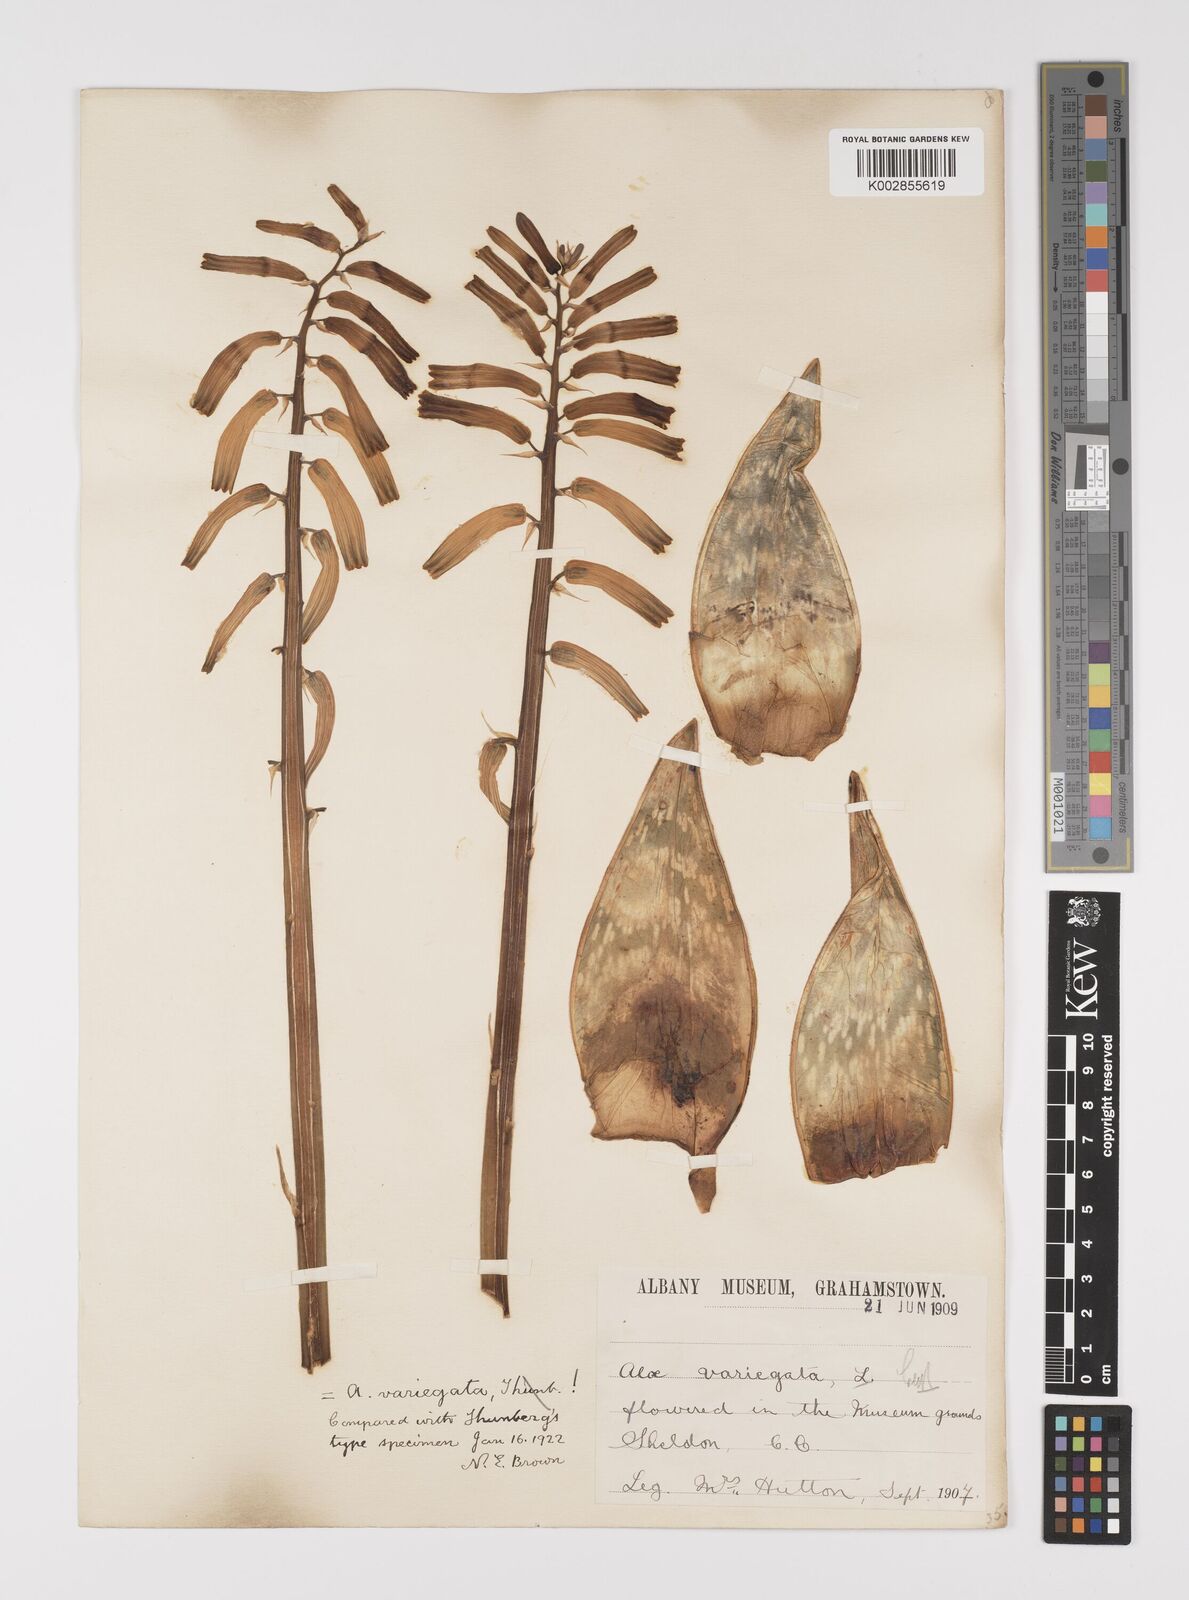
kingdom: Plantae
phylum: Tracheophyta
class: Liliopsida
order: Asparagales
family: Asphodelaceae
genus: Gonialoe
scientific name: Gonialoe variegata
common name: Aloe variegata
